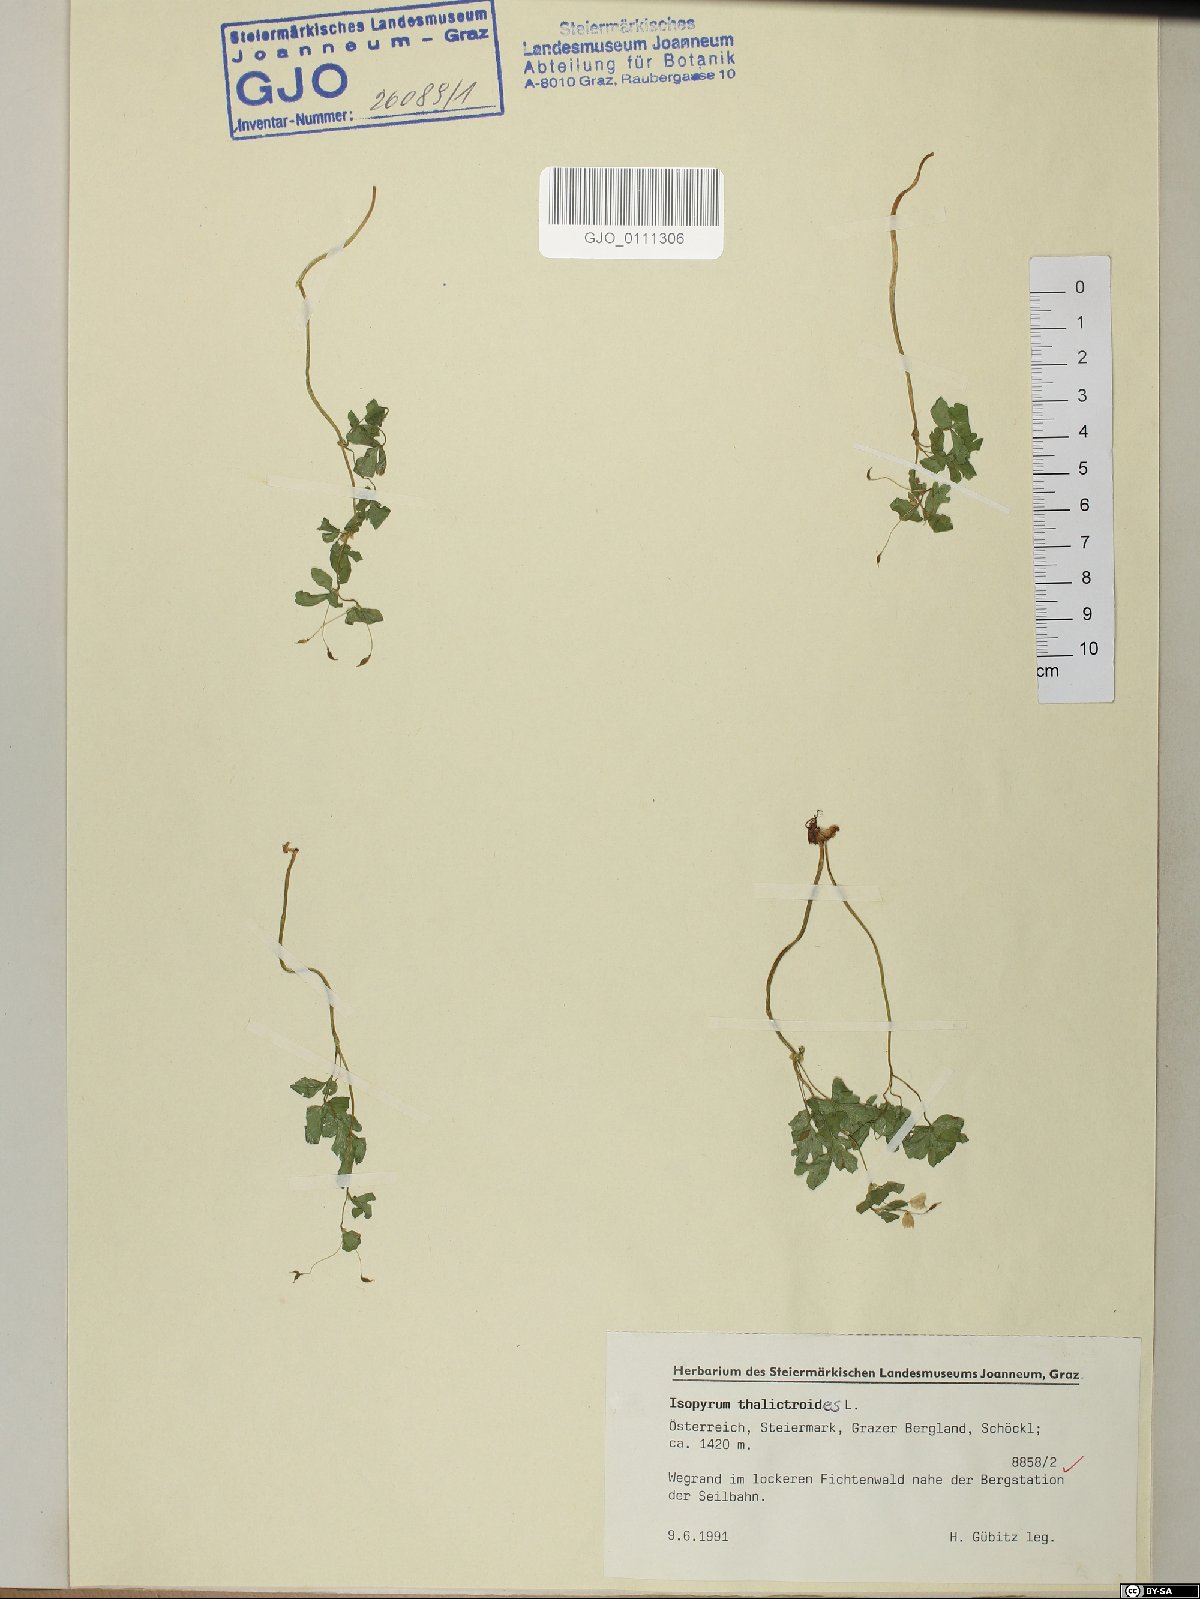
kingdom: Plantae
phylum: Tracheophyta
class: Magnoliopsida
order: Ranunculales
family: Ranunculaceae
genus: Isopyrum
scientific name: Isopyrum thalictroides
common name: Isopyrum
